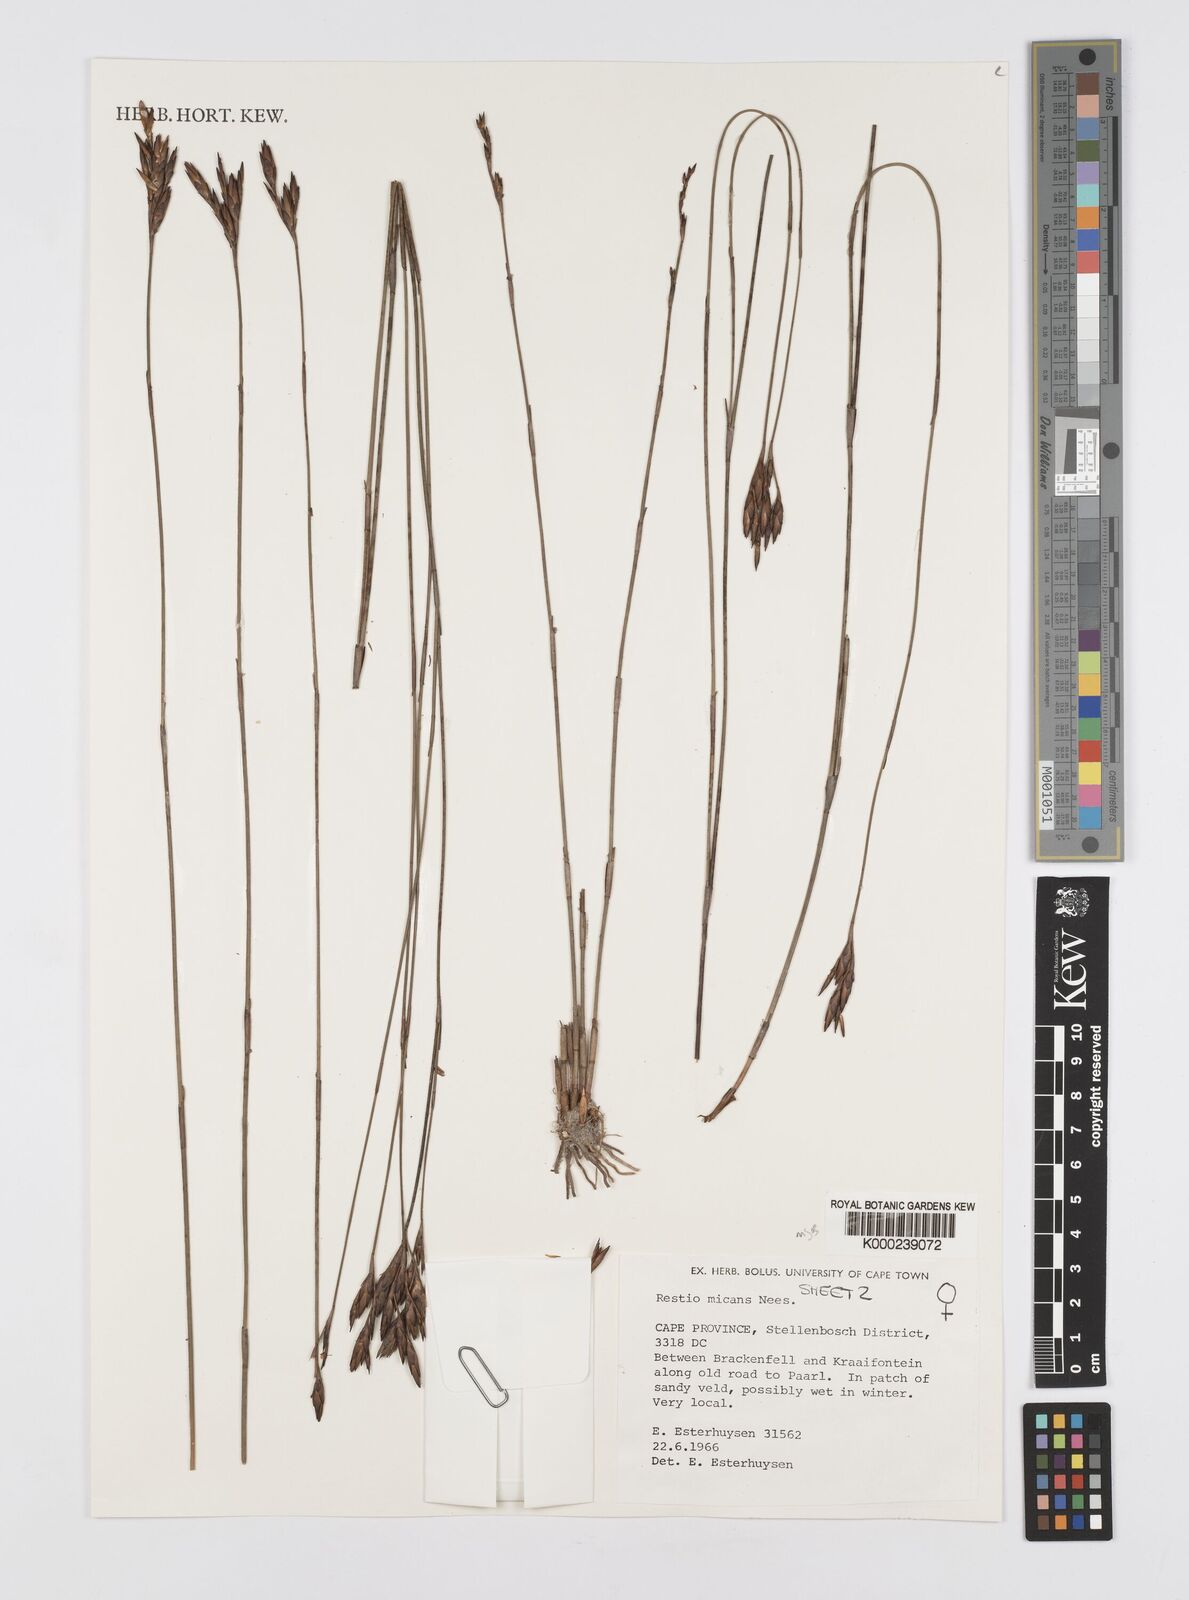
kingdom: Plantae
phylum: Tracheophyta
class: Liliopsida
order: Poales
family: Restionaceae
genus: Restio
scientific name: Restio micans
